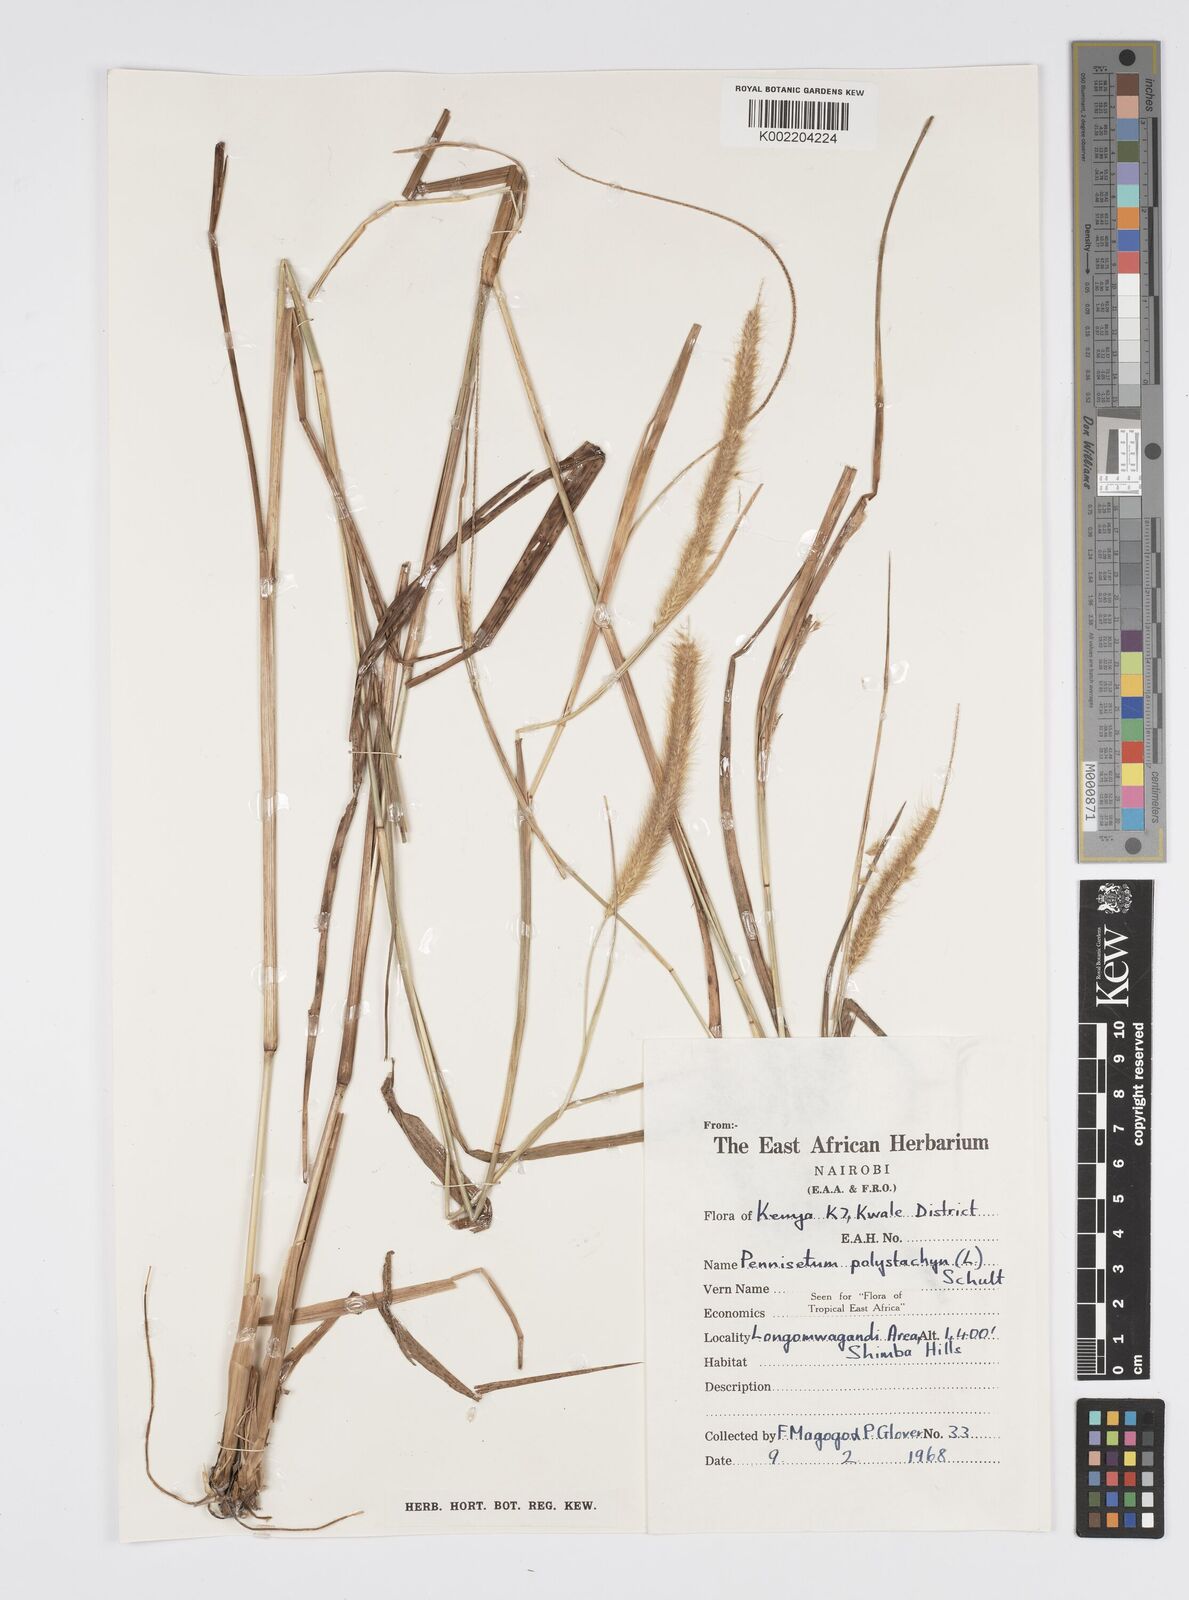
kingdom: Plantae
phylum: Tracheophyta
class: Liliopsida
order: Poales
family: Poaceae
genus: Setaria
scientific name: Setaria parviflora
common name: Knotroot bristle-grass
